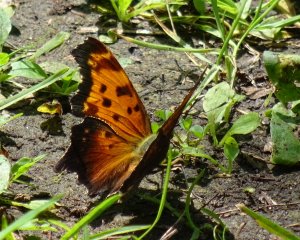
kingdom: Animalia
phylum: Arthropoda
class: Insecta
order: Lepidoptera
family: Nymphalidae
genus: Polygonia
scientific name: Polygonia progne
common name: Gray Comma
